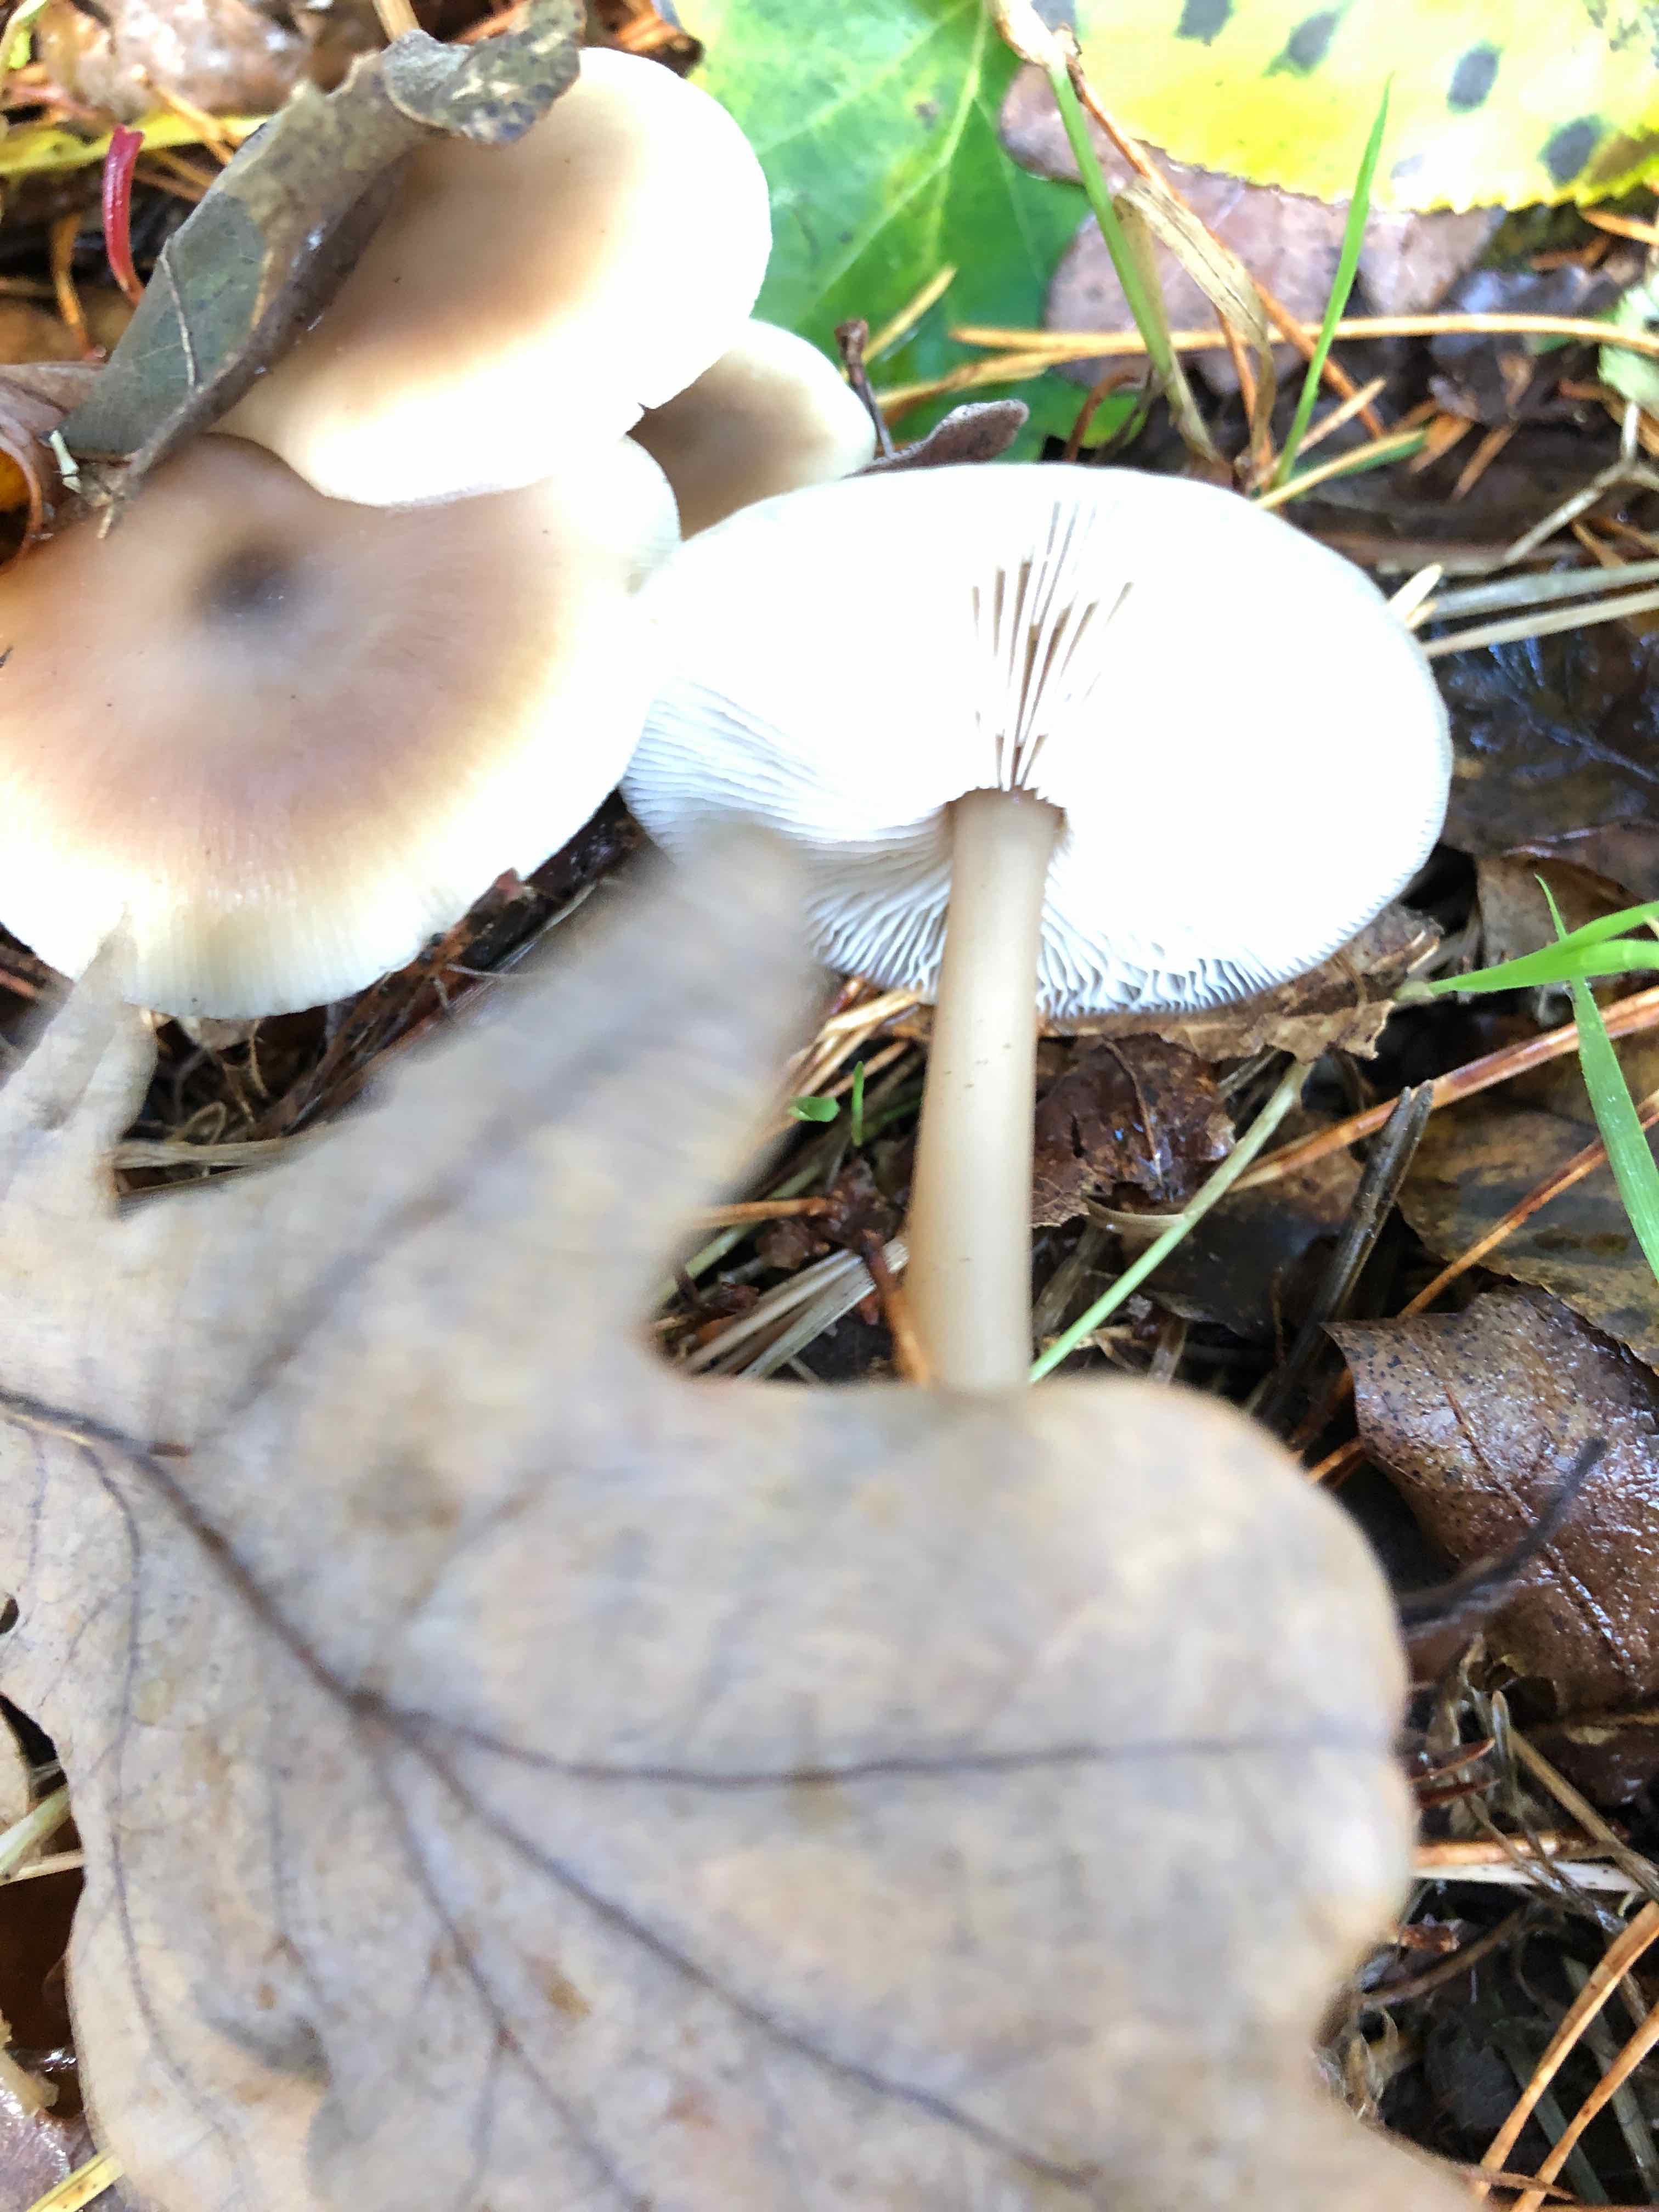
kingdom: Fungi
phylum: Basidiomycota
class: Agaricomycetes
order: Agaricales
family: Omphalotaceae
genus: Rhodocollybia
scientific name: Rhodocollybia asema
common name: horngrå fladhat
